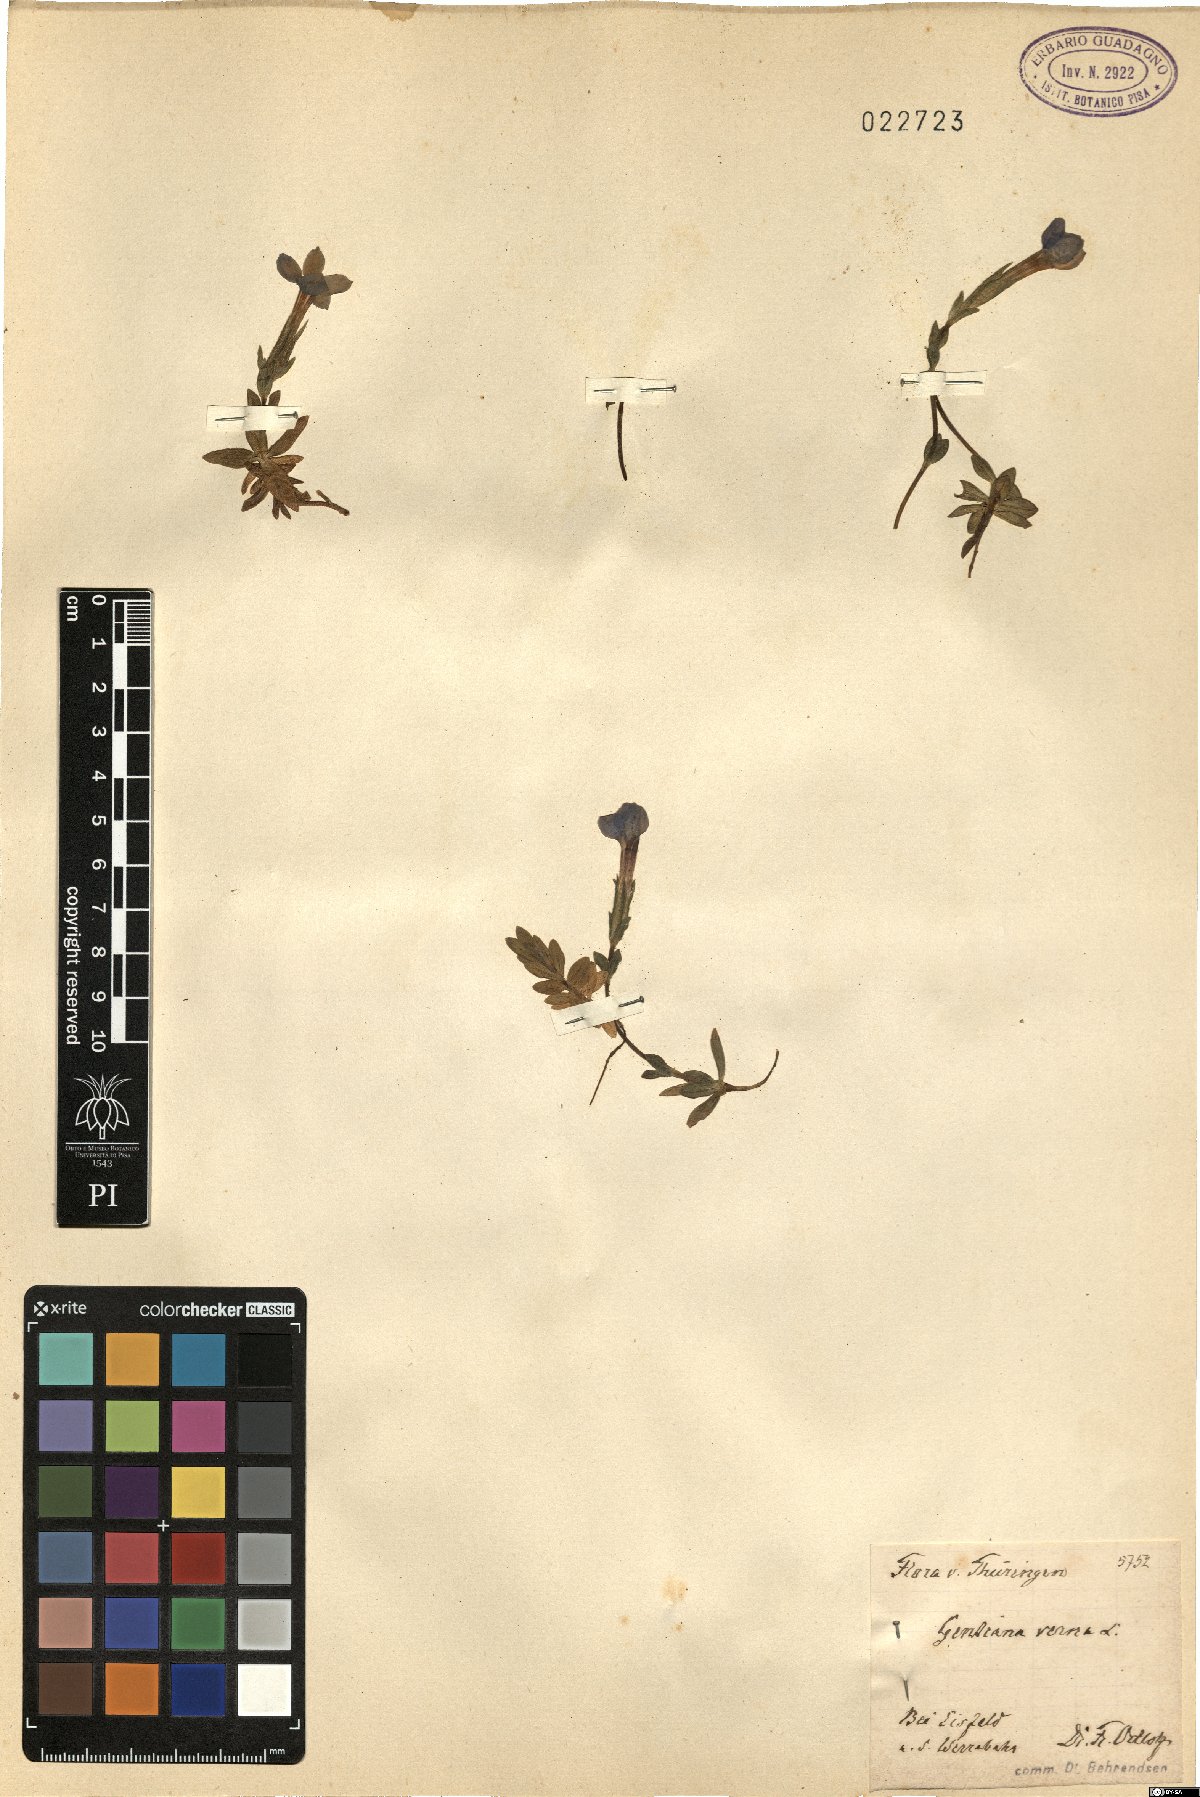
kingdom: Plantae
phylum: Tracheophyta
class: Magnoliopsida
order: Gentianales
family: Gentianaceae
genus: Gentiana
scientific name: Gentiana verna
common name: Spring gentian
